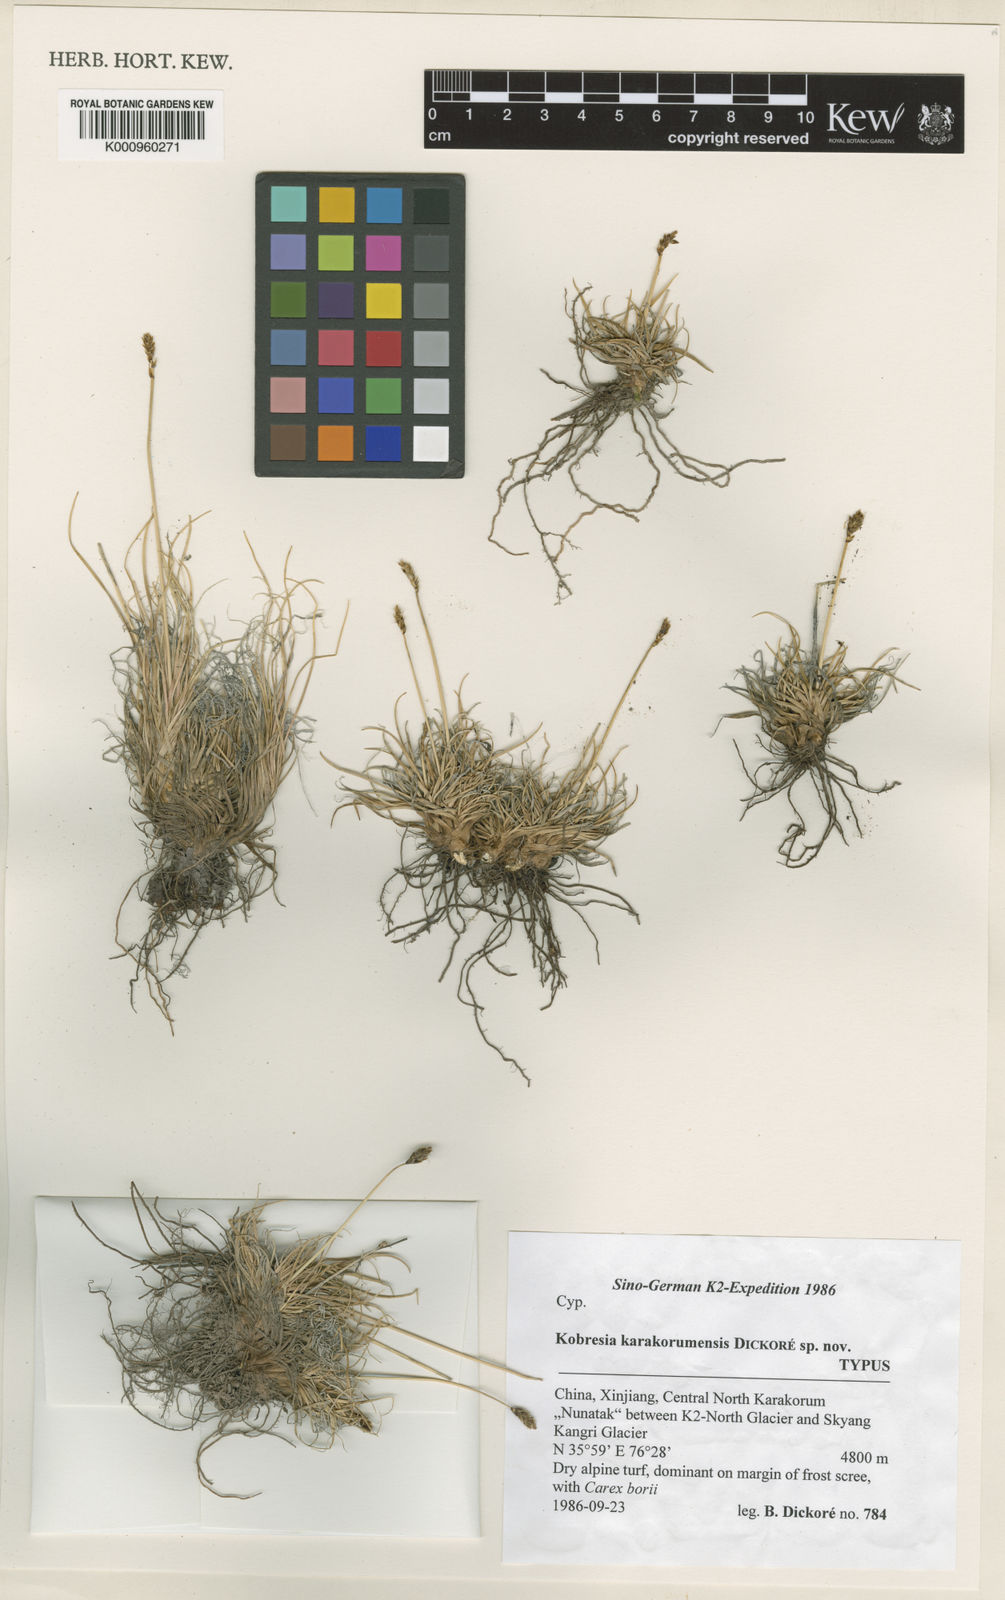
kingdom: Plantae
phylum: Tracheophyta
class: Liliopsida
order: Poales
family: Cyperaceae
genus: Carex
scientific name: Carex
